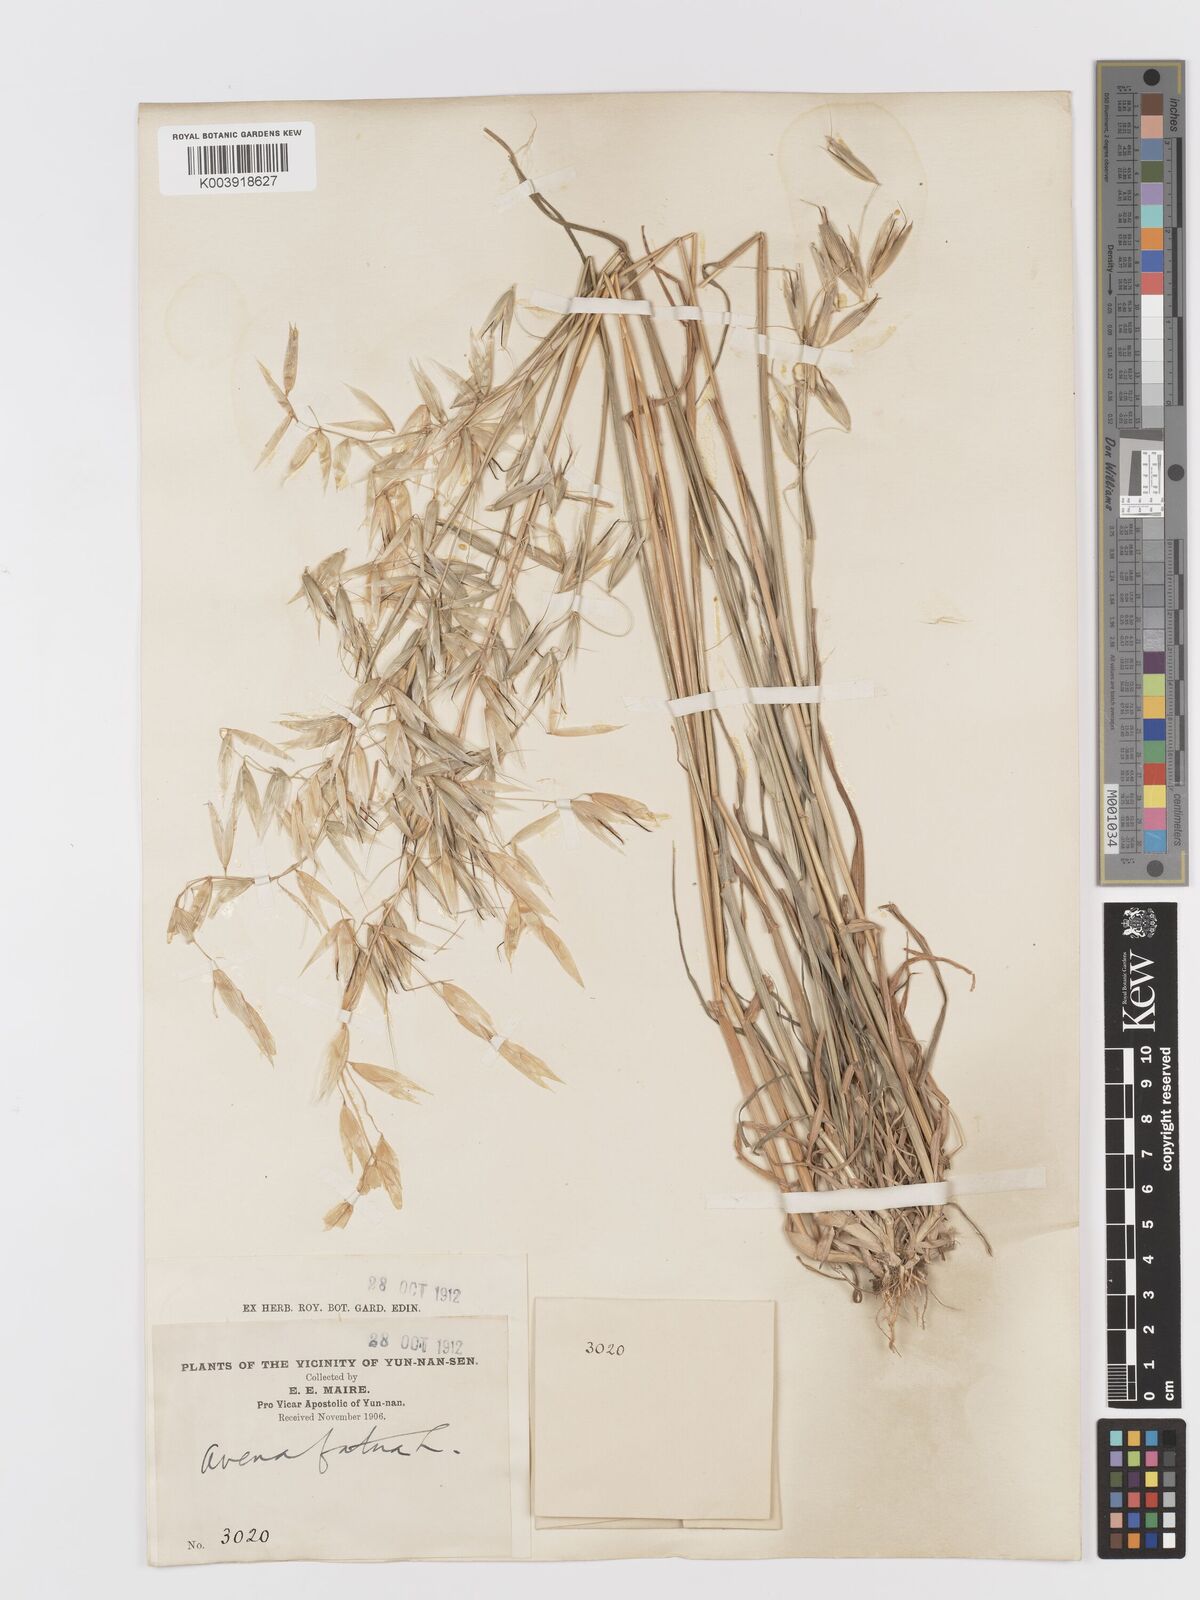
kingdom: Plantae
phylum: Tracheophyta
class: Liliopsida
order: Poales
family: Poaceae
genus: Avena
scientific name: Avena fatua
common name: Wild oat
